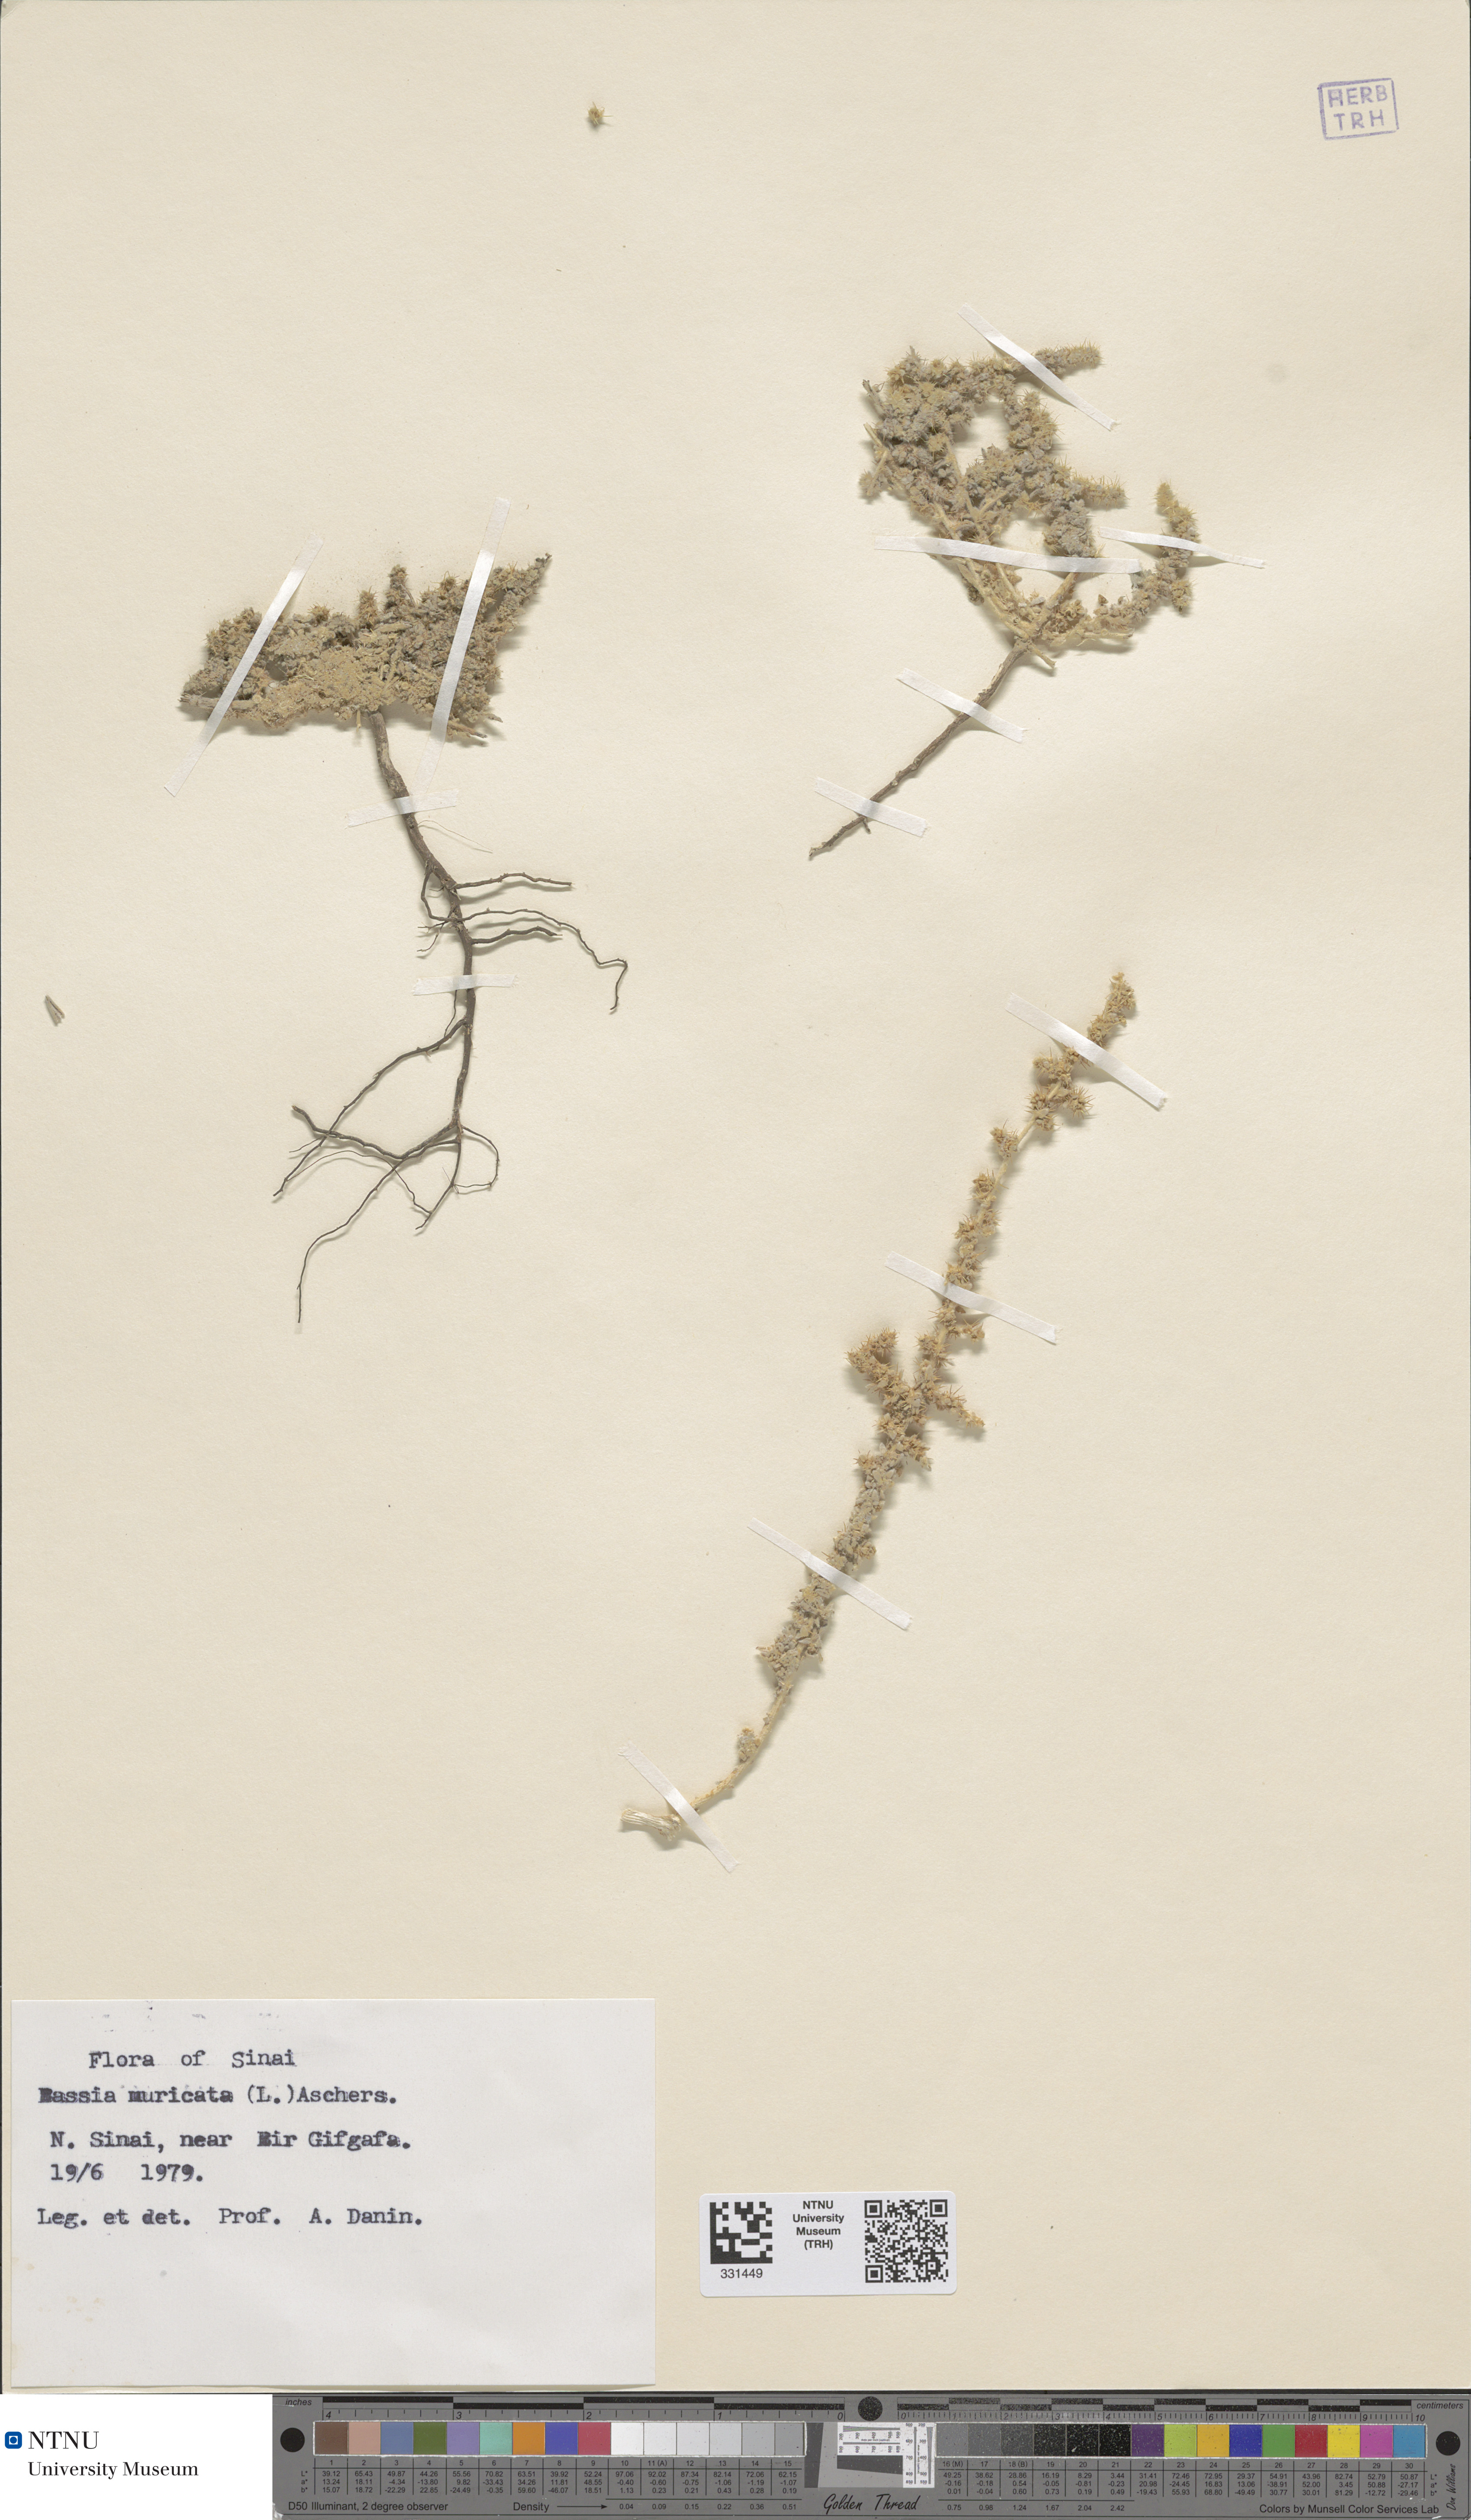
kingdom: Plantae
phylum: Tracheophyta
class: Magnoliopsida
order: Caryophyllales
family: Amaranthaceae
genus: Bassia
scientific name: Bassia muricata
